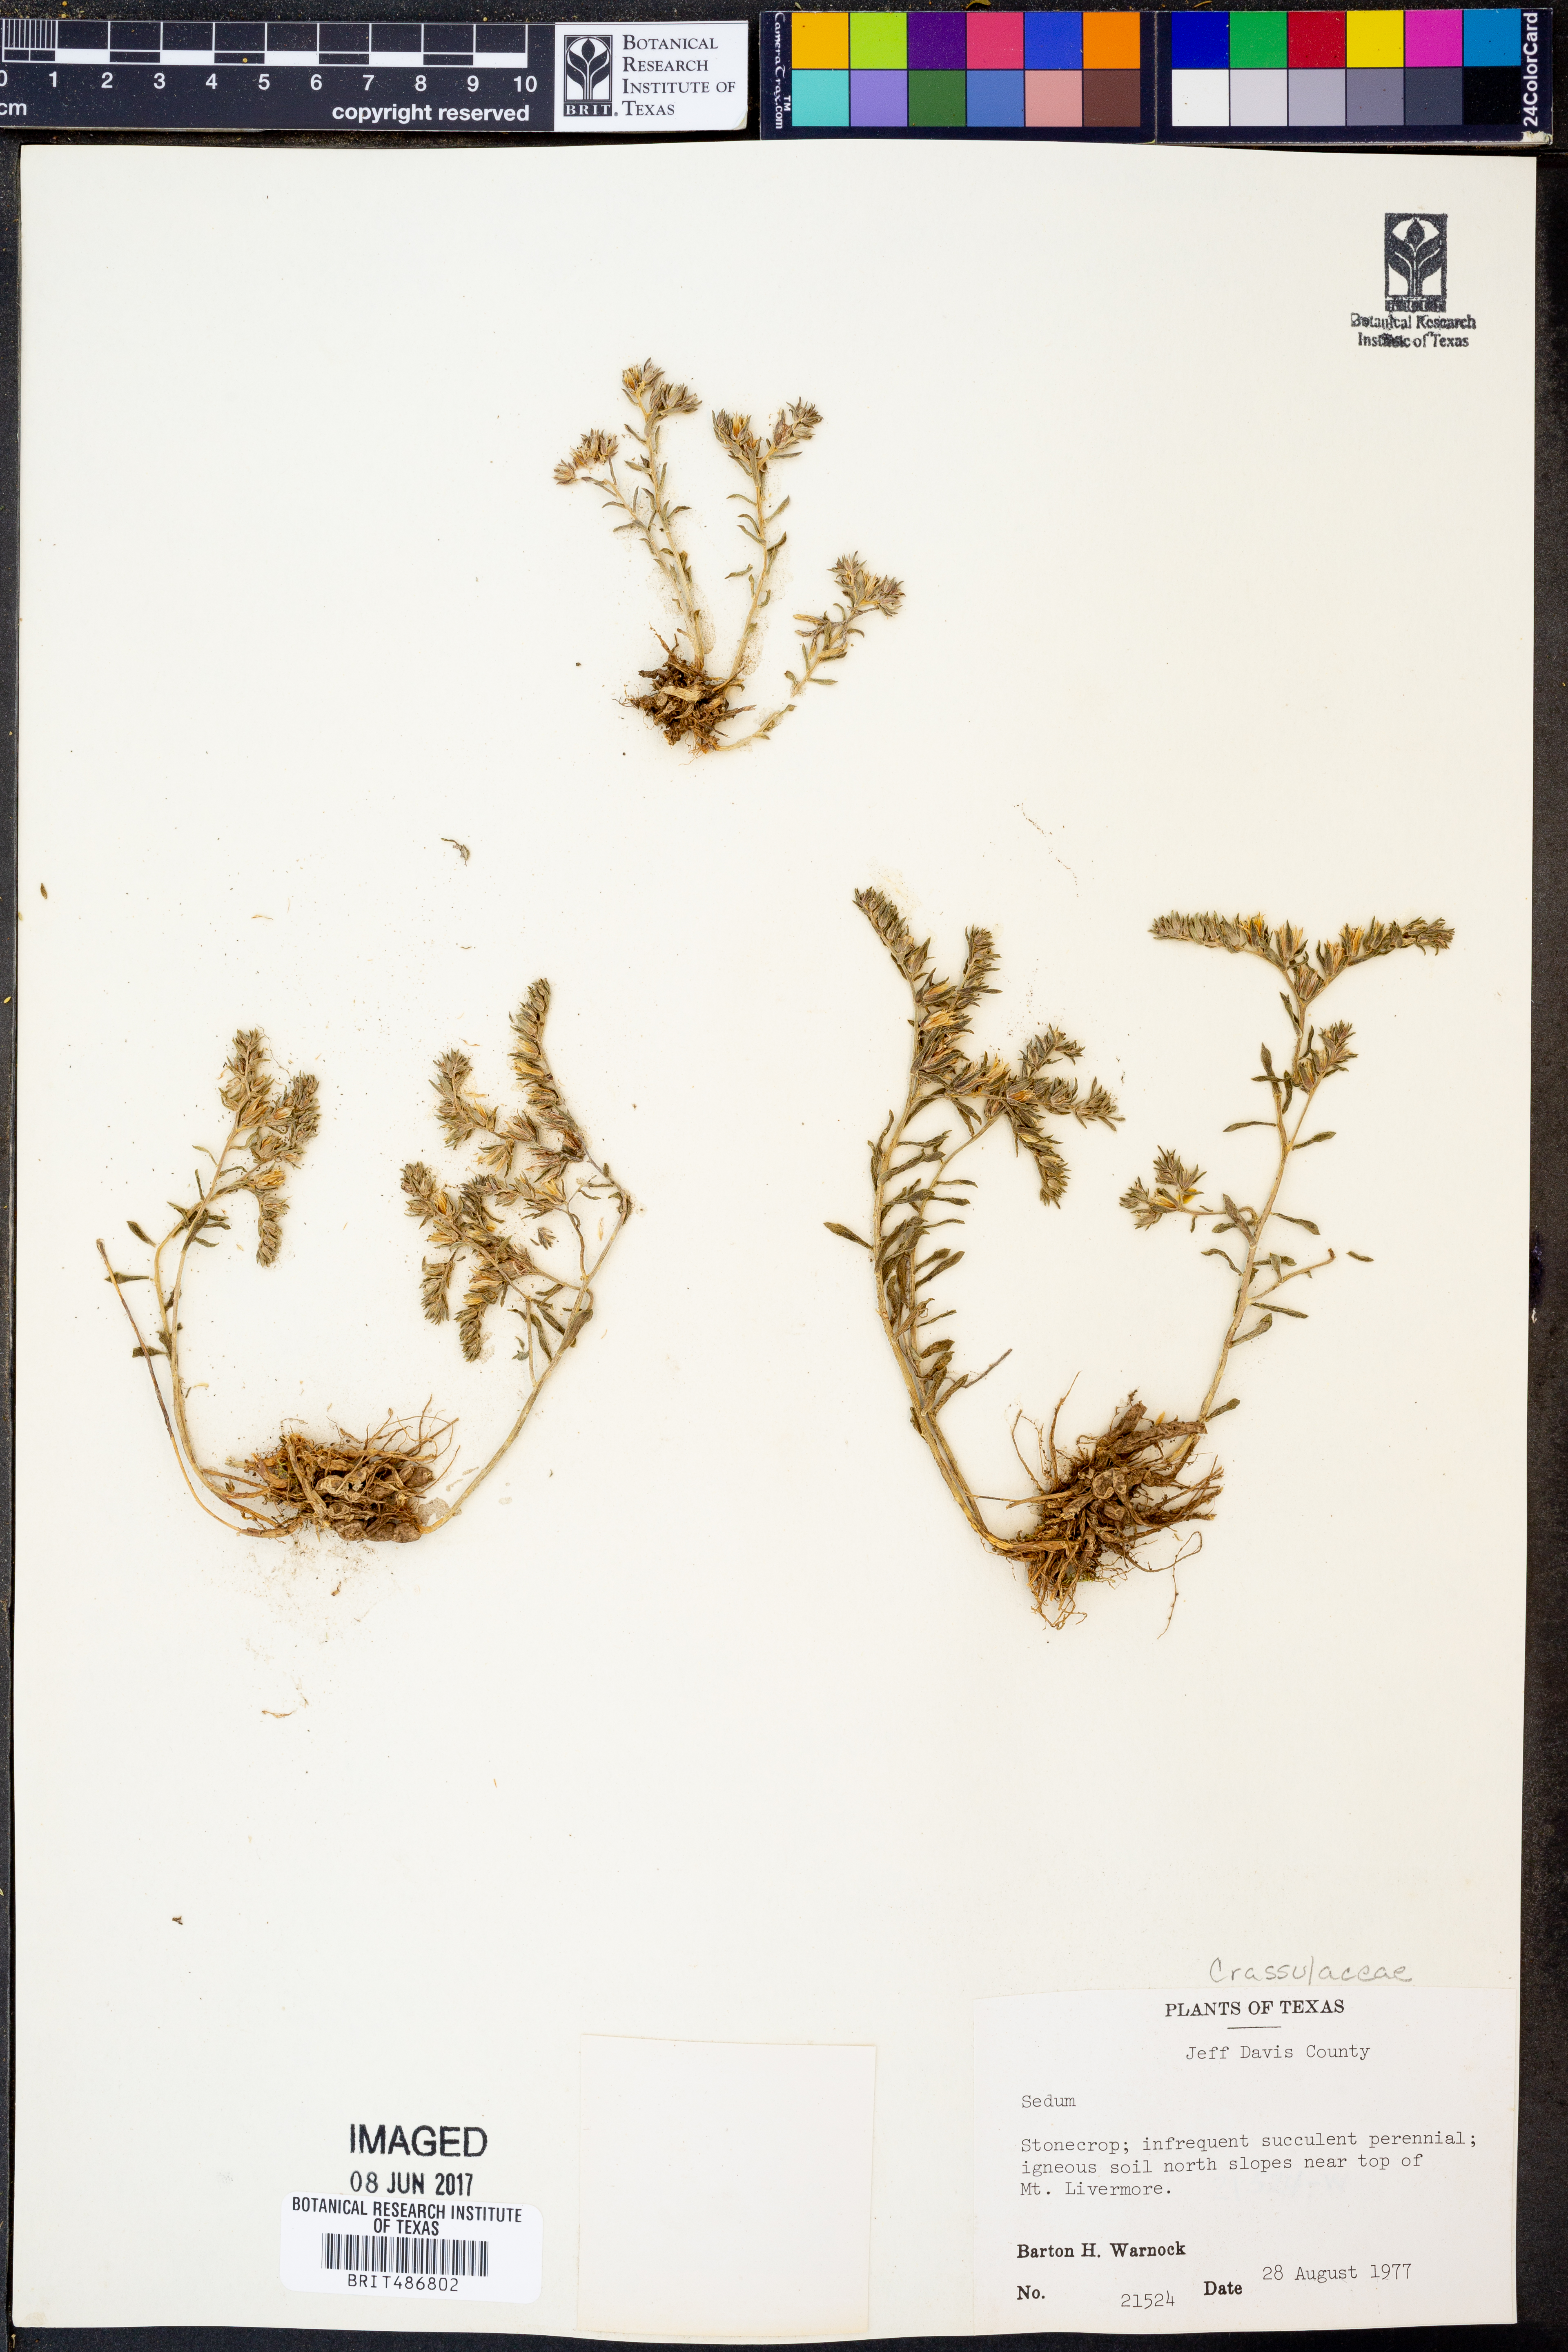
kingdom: Plantae
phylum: Tracheophyta
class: Magnoliopsida
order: Saxifragales
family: Crassulaceae
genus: Sedum
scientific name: Sedum
